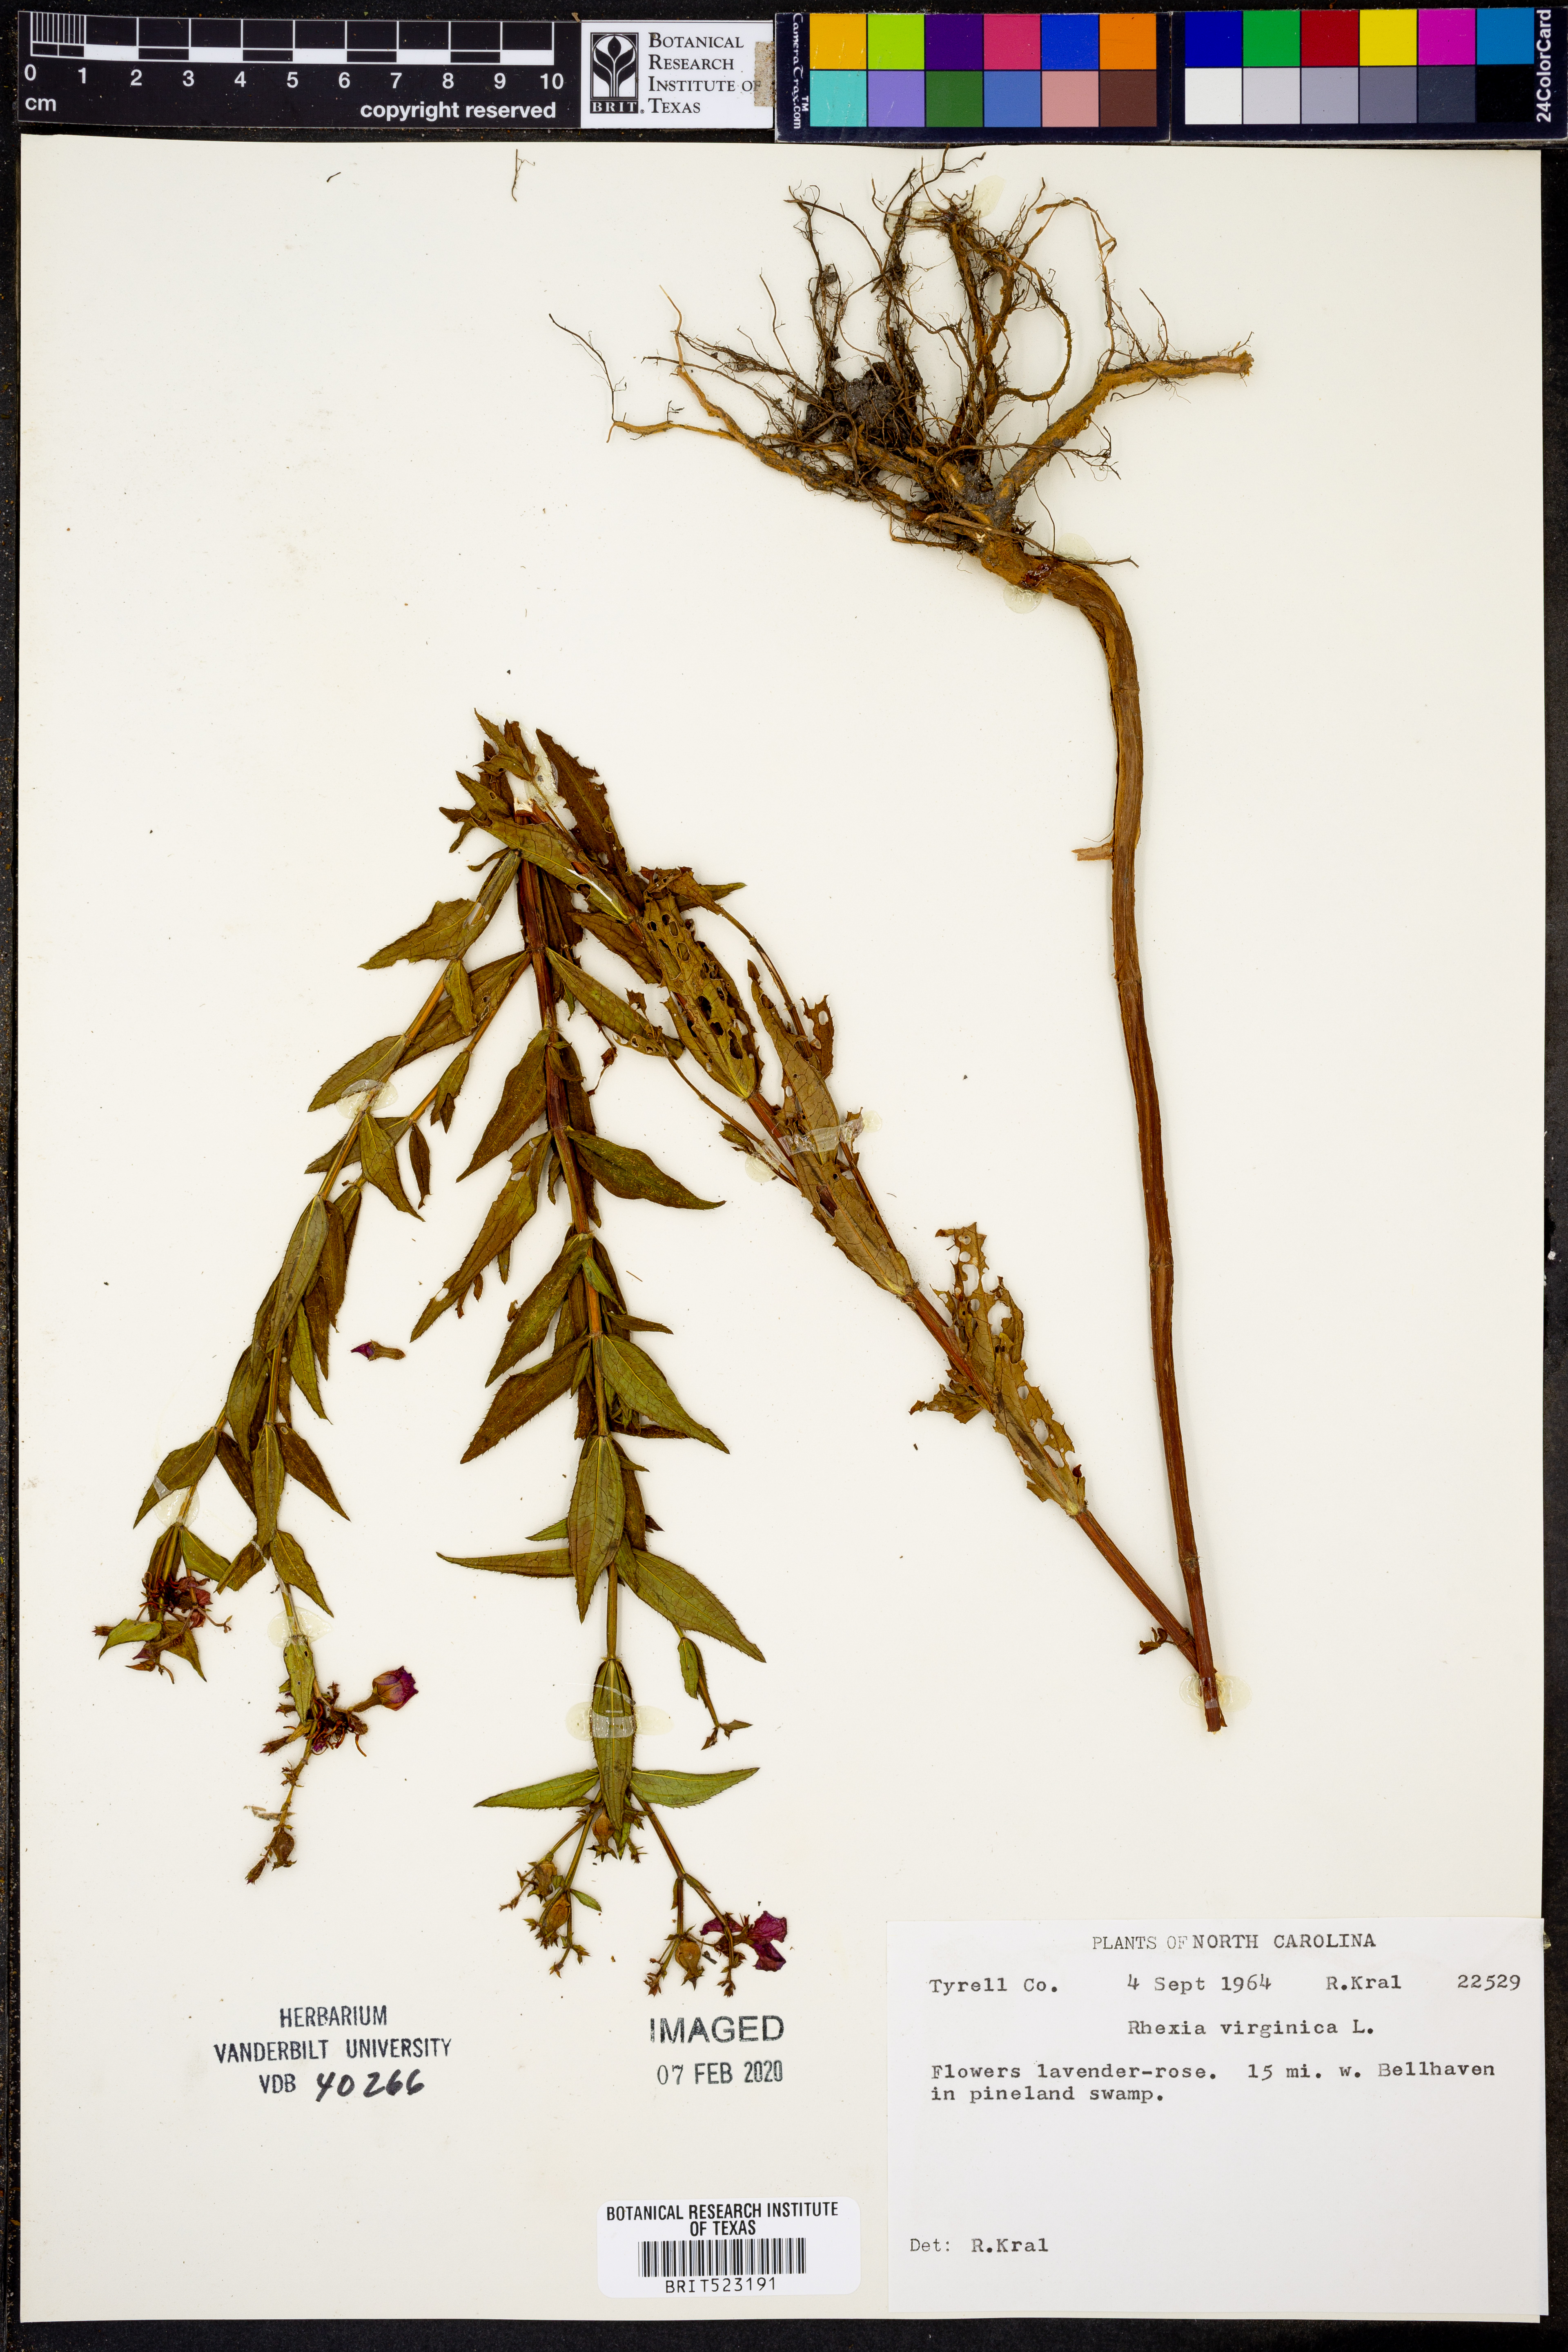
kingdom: Plantae
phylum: Tracheophyta
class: Magnoliopsida
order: Myrtales
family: Melastomataceae
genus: Rhexia
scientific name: Rhexia virginica
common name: Common meadow beauty
